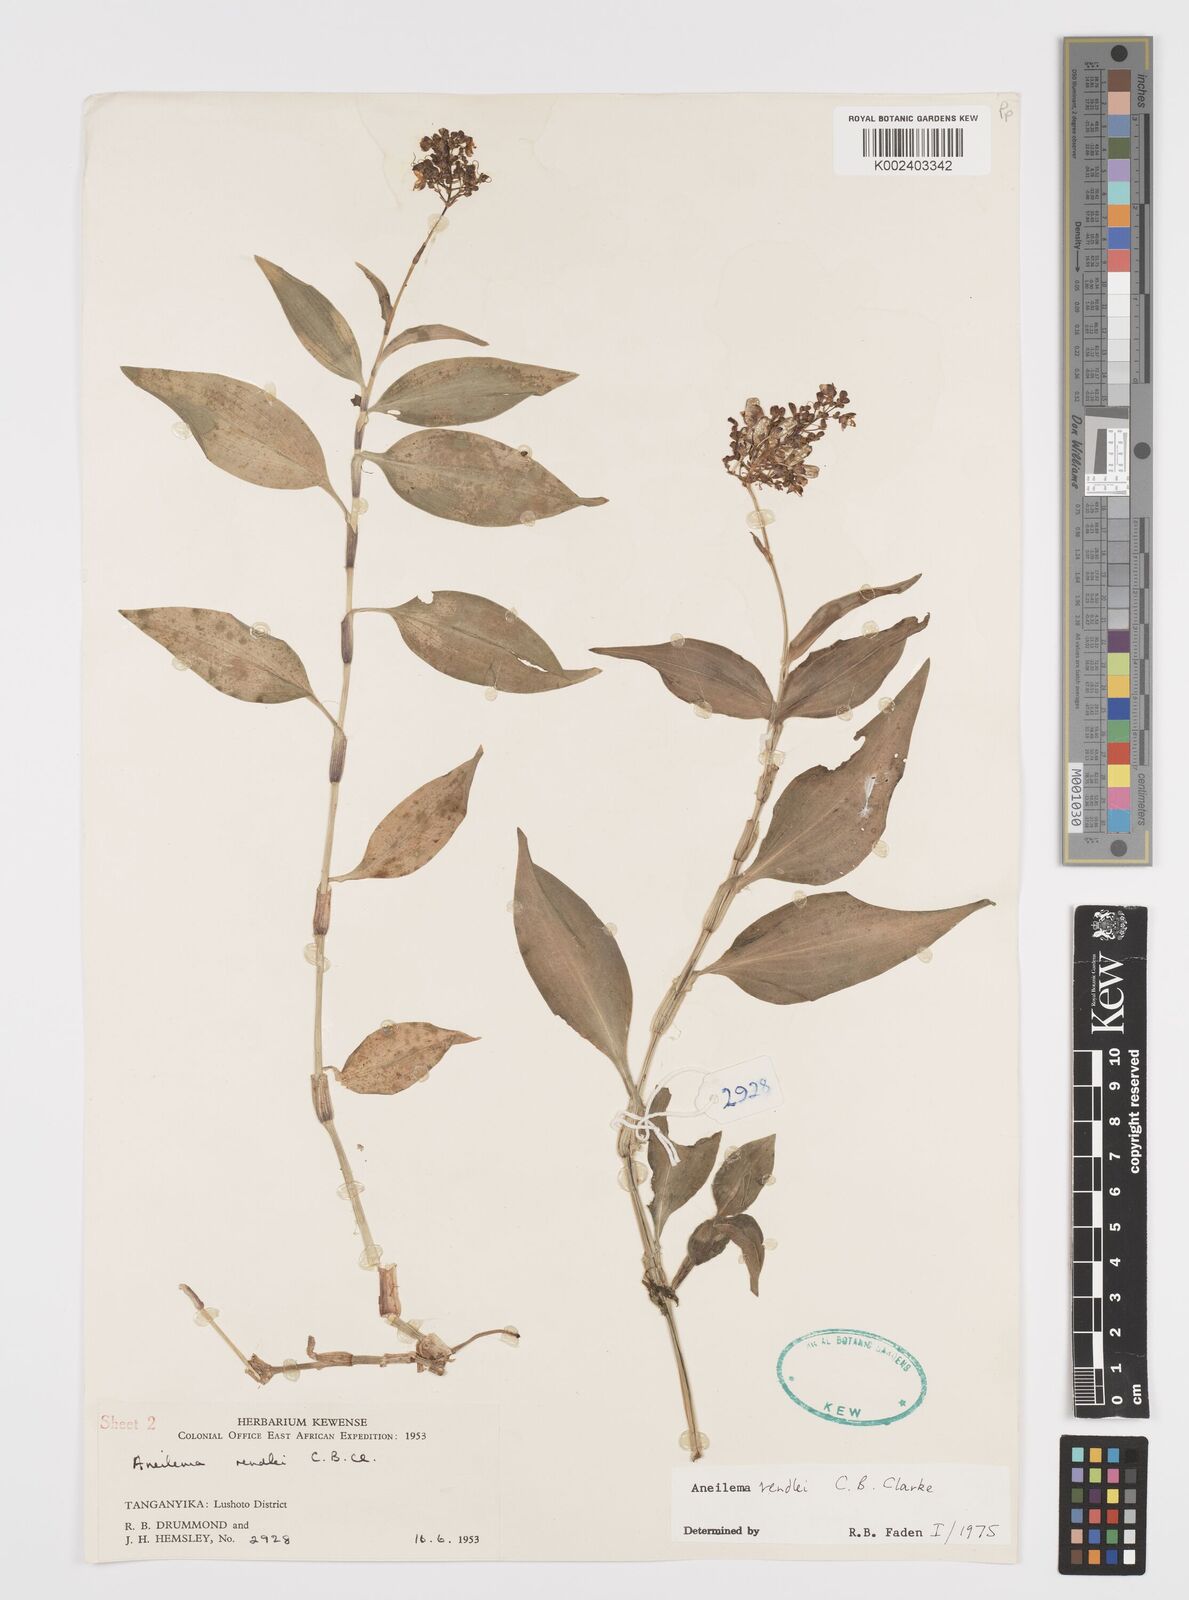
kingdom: Plantae
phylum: Tracheophyta
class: Liliopsida
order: Commelinales
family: Commelinaceae
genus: Aneilema
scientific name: Aneilema rendlei
